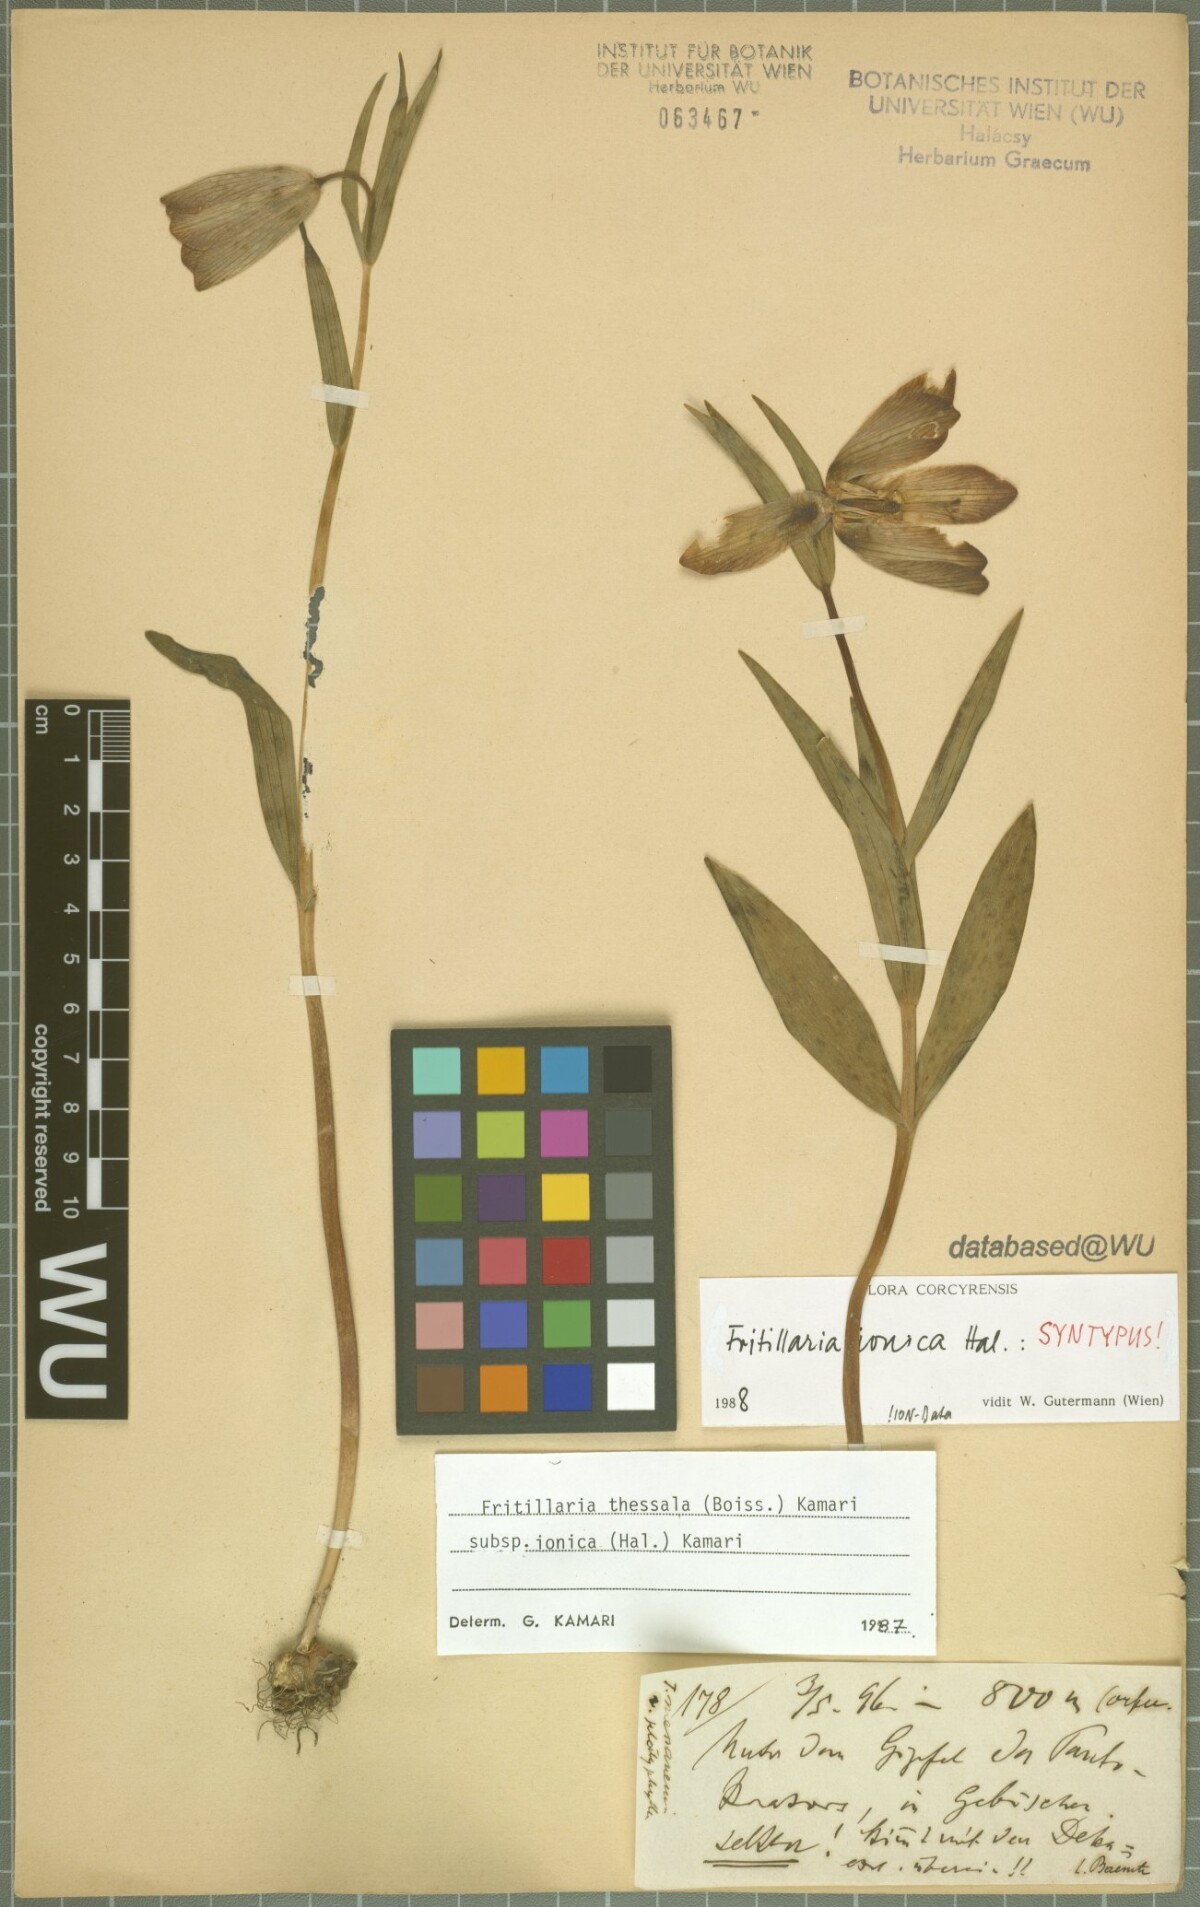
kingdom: Plantae
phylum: Tracheophyta
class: Liliopsida
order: Liliales
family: Liliaceae
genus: Fritillaria
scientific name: Fritillaria graeca
